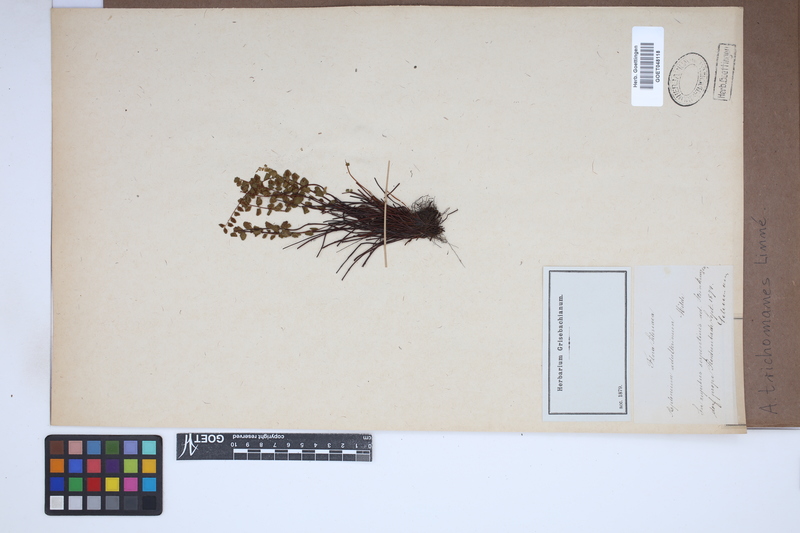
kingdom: Plantae
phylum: Tracheophyta
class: Polypodiopsida
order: Polypodiales
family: Aspleniaceae
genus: Asplenium
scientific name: Asplenium trichomanes
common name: Maidenhair spleenwort
